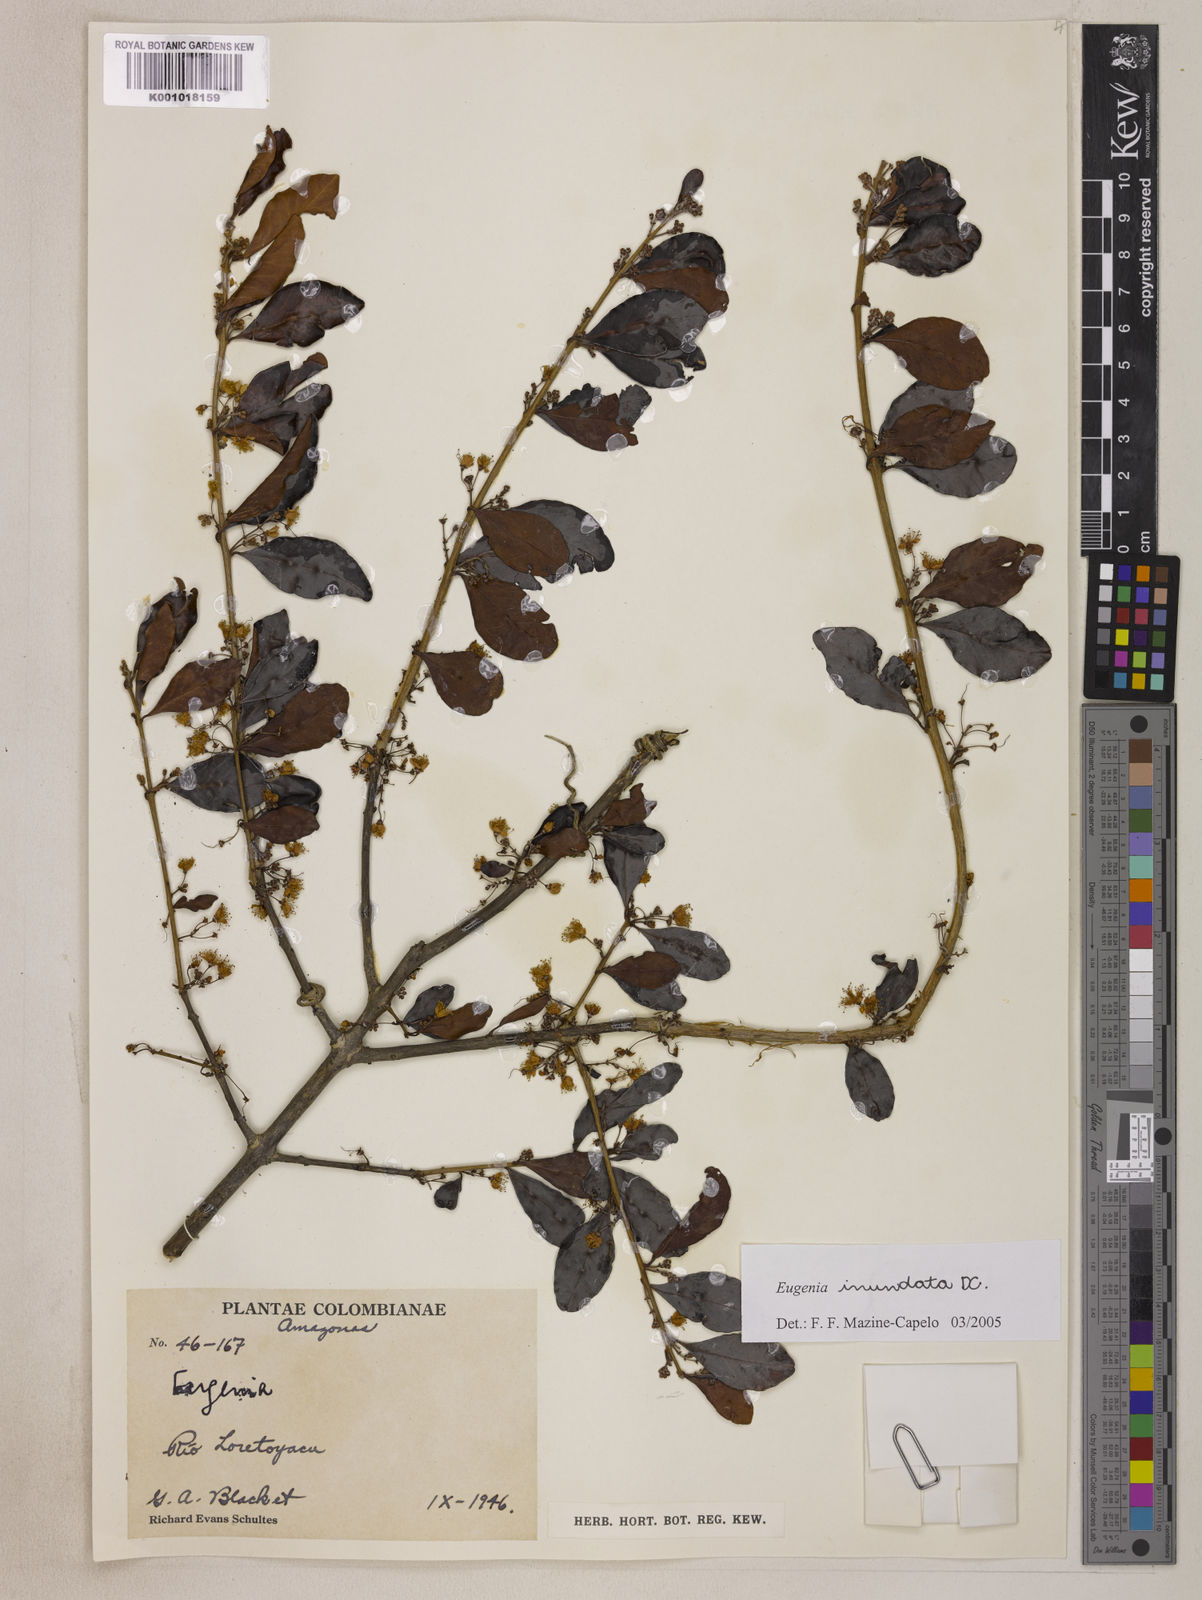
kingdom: Plantae
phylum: Tracheophyta
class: Magnoliopsida
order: Myrtales
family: Myrtaceae
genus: Eugenia
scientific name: Eugenia inundata
